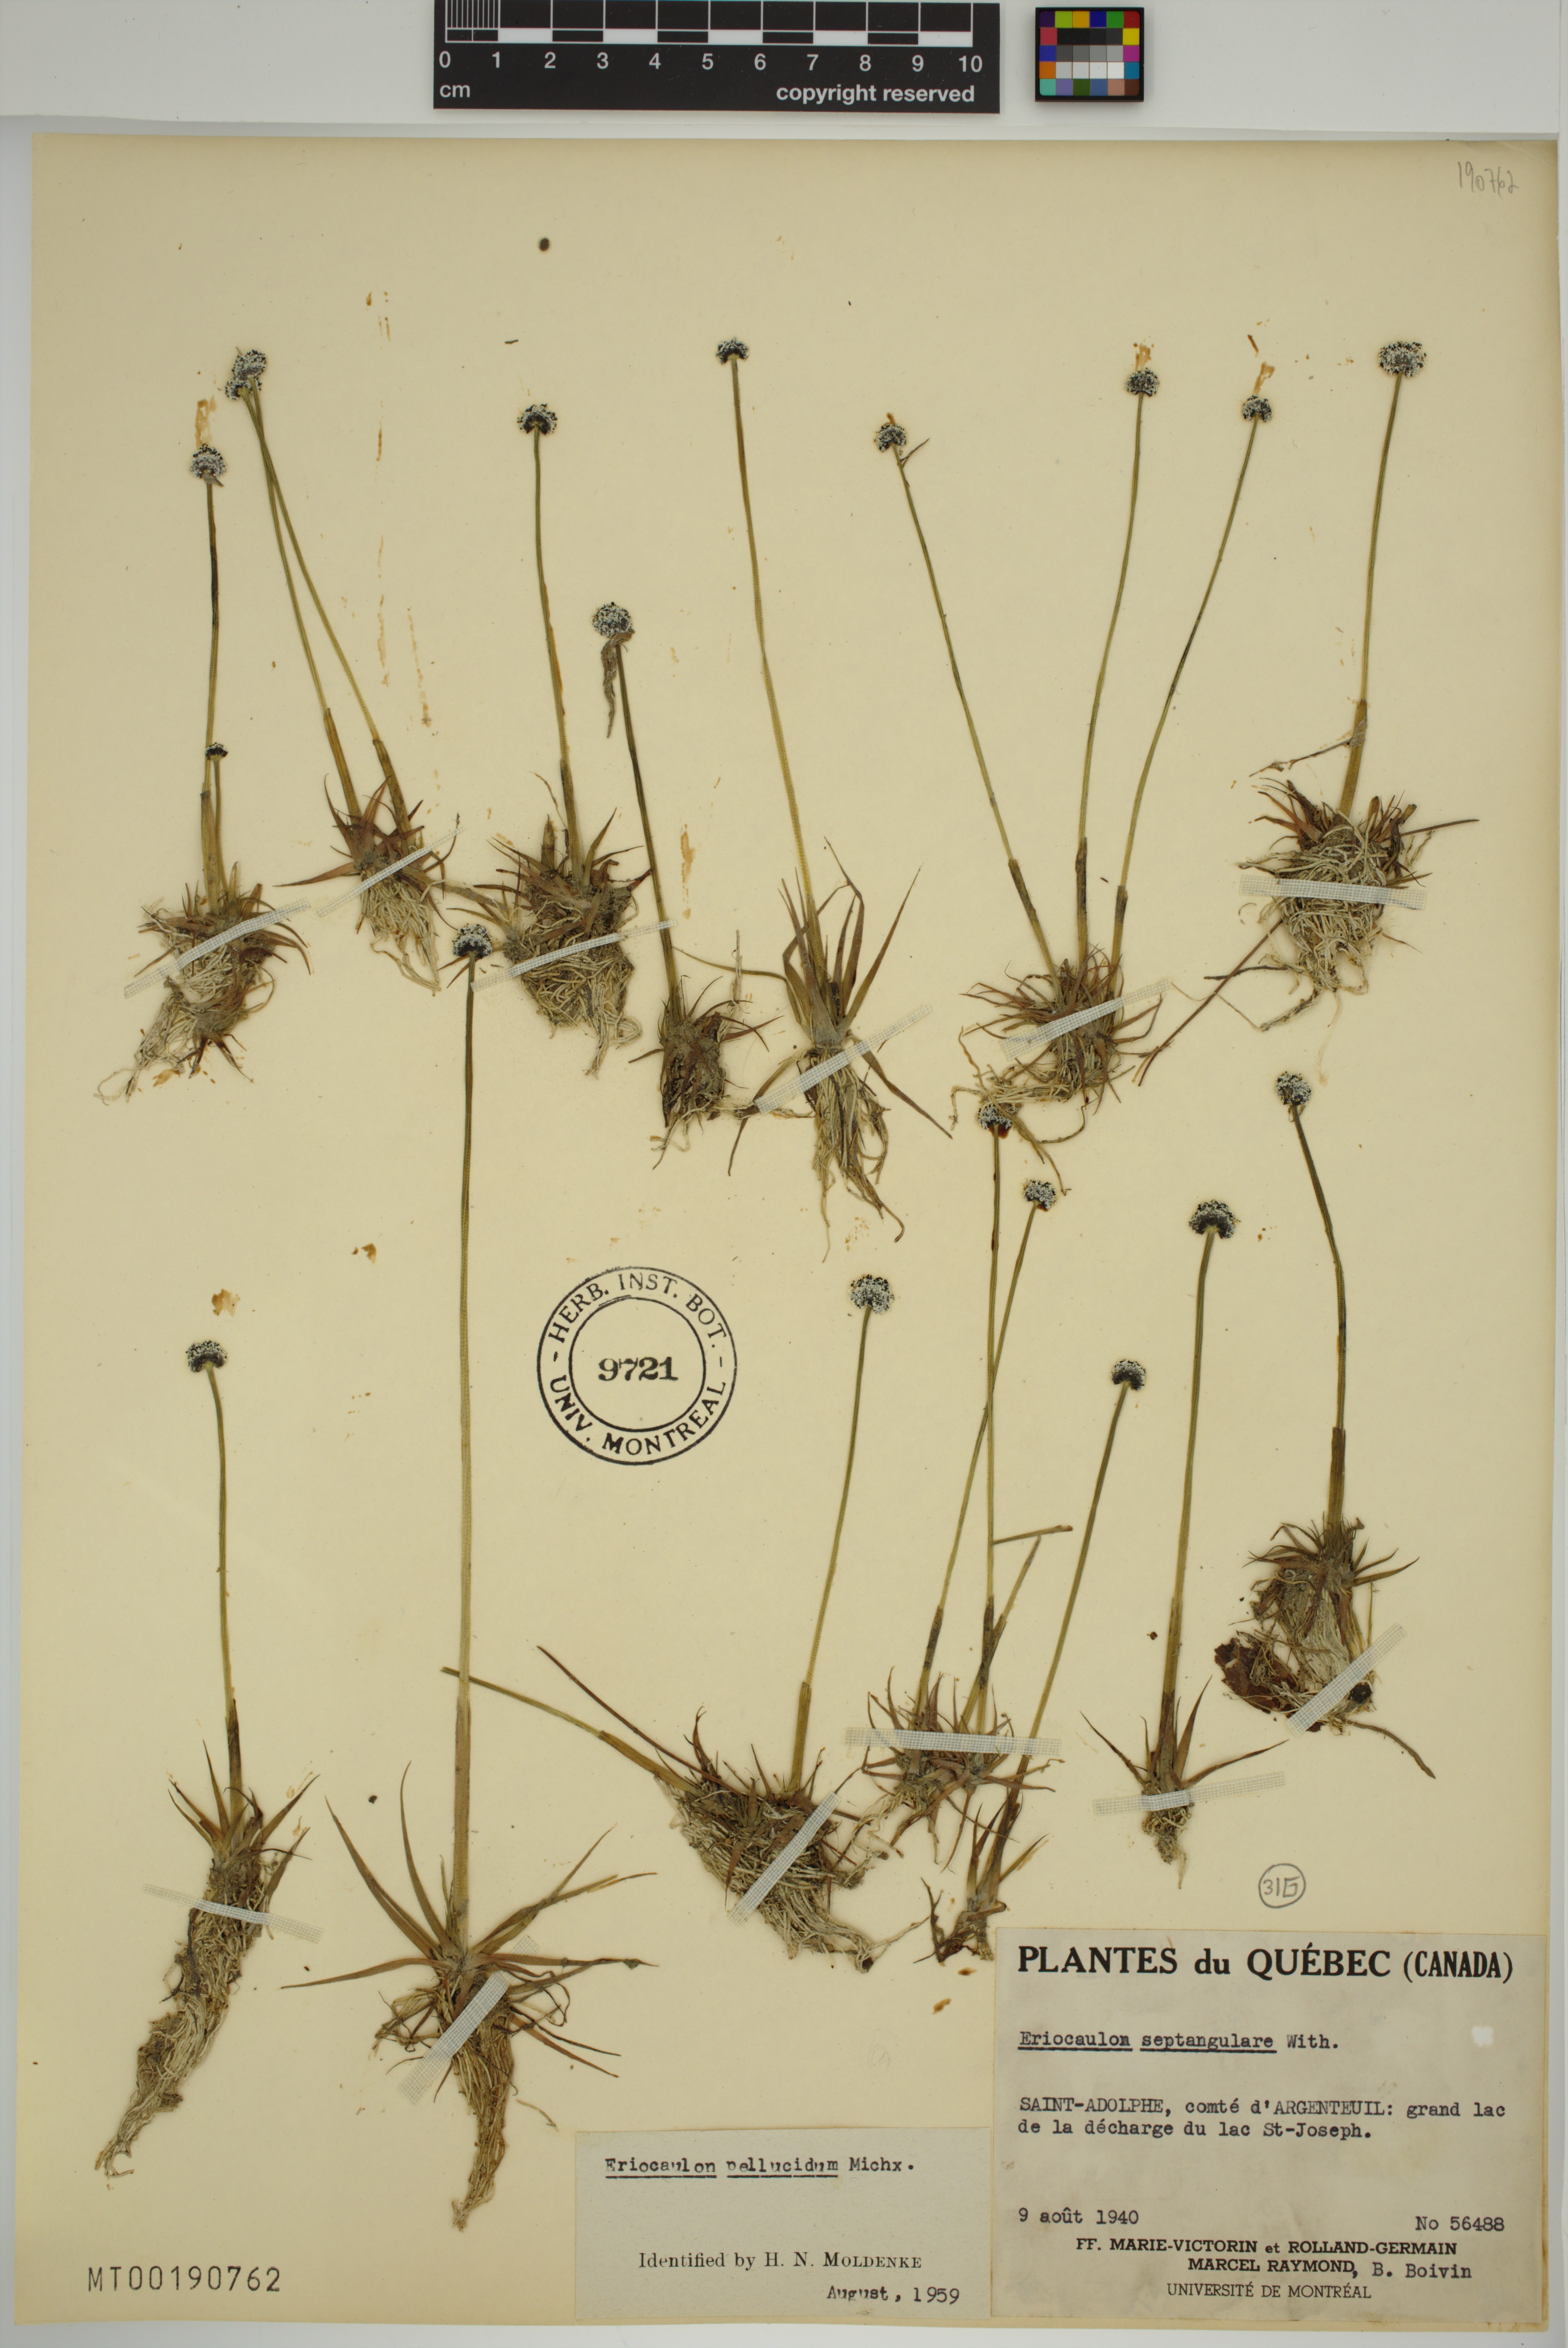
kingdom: Plantae
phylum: Tracheophyta
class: Liliopsida
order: Poales
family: Eriocaulaceae
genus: Eriocaulon
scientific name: Eriocaulon aquaticum
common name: Pipewort
